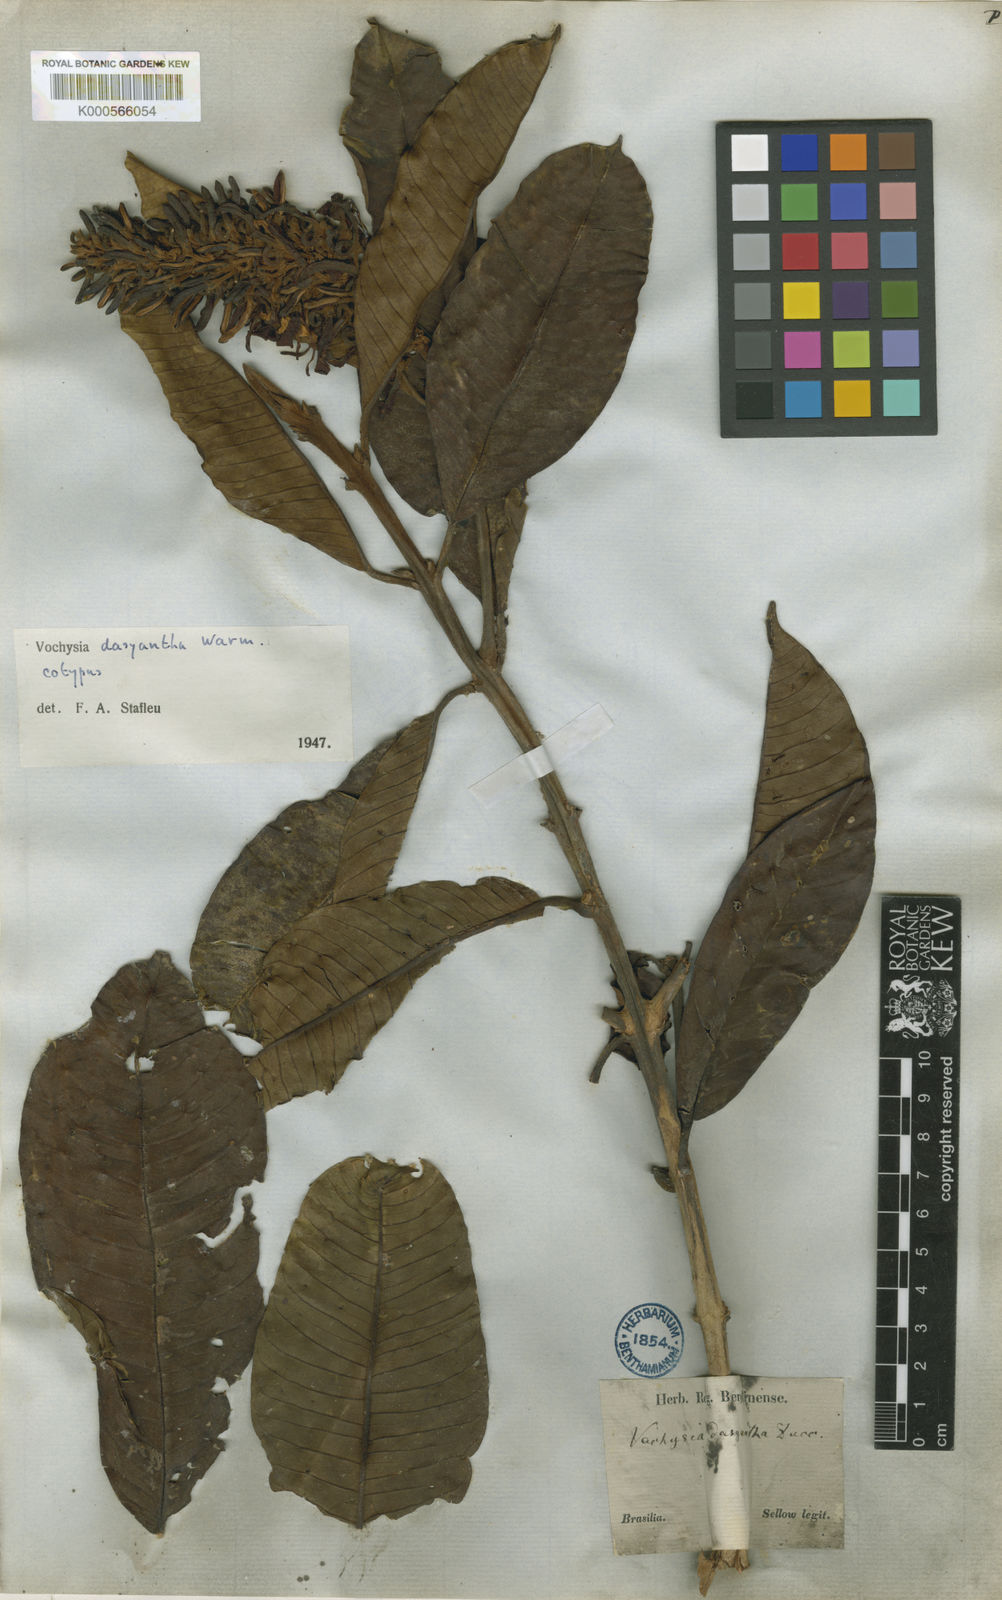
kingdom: Plantae
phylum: Tracheophyta
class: Magnoliopsida
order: Myrtales
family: Vochysiaceae
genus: Vochysia
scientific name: Vochysia dasyantha
